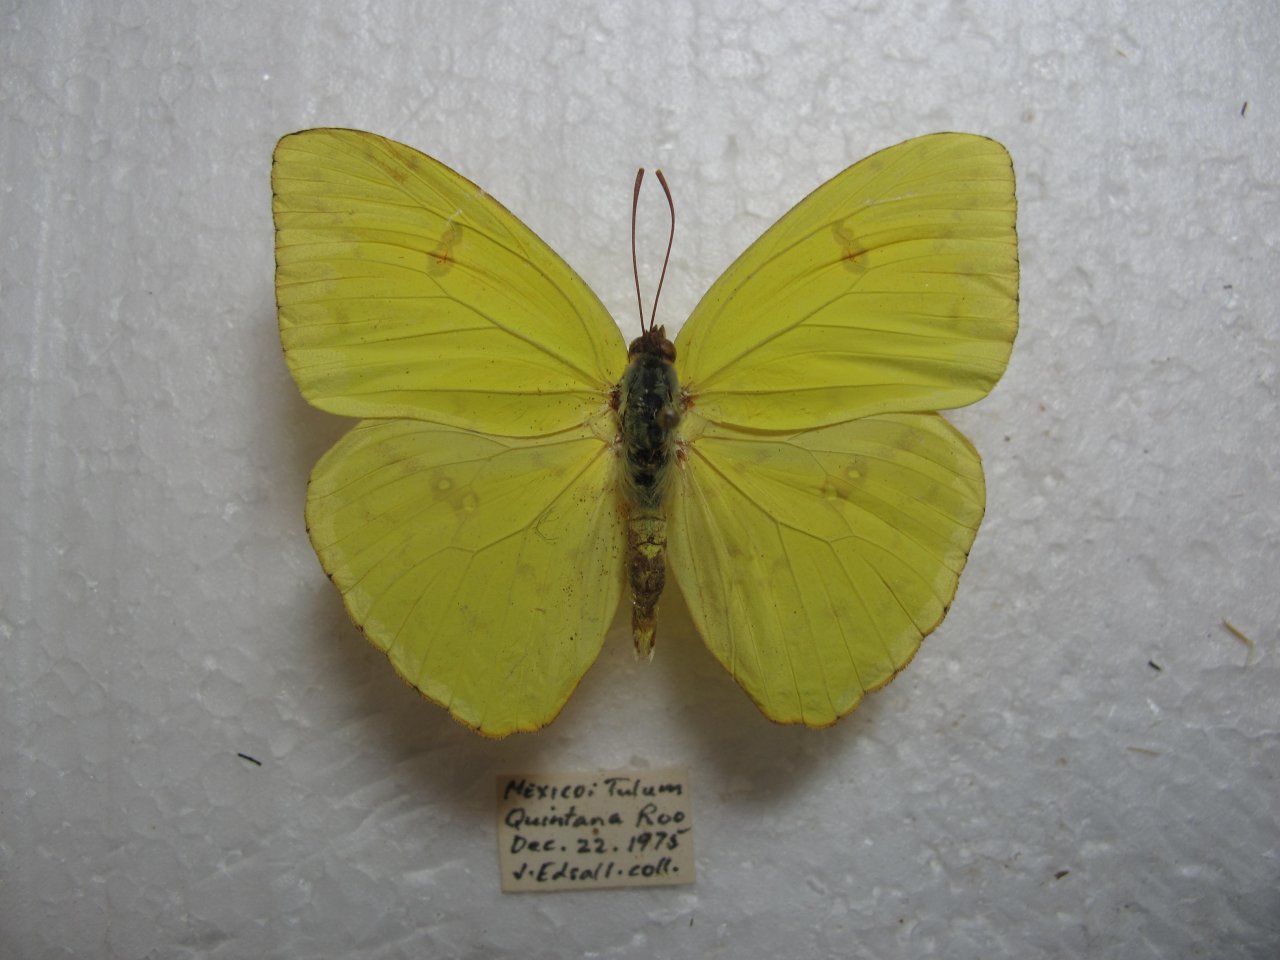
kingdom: Animalia
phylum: Arthropoda
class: Insecta
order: Lepidoptera
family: Pieridae
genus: Phoebis
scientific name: Phoebis sennae
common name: Cloudless Sulphur
